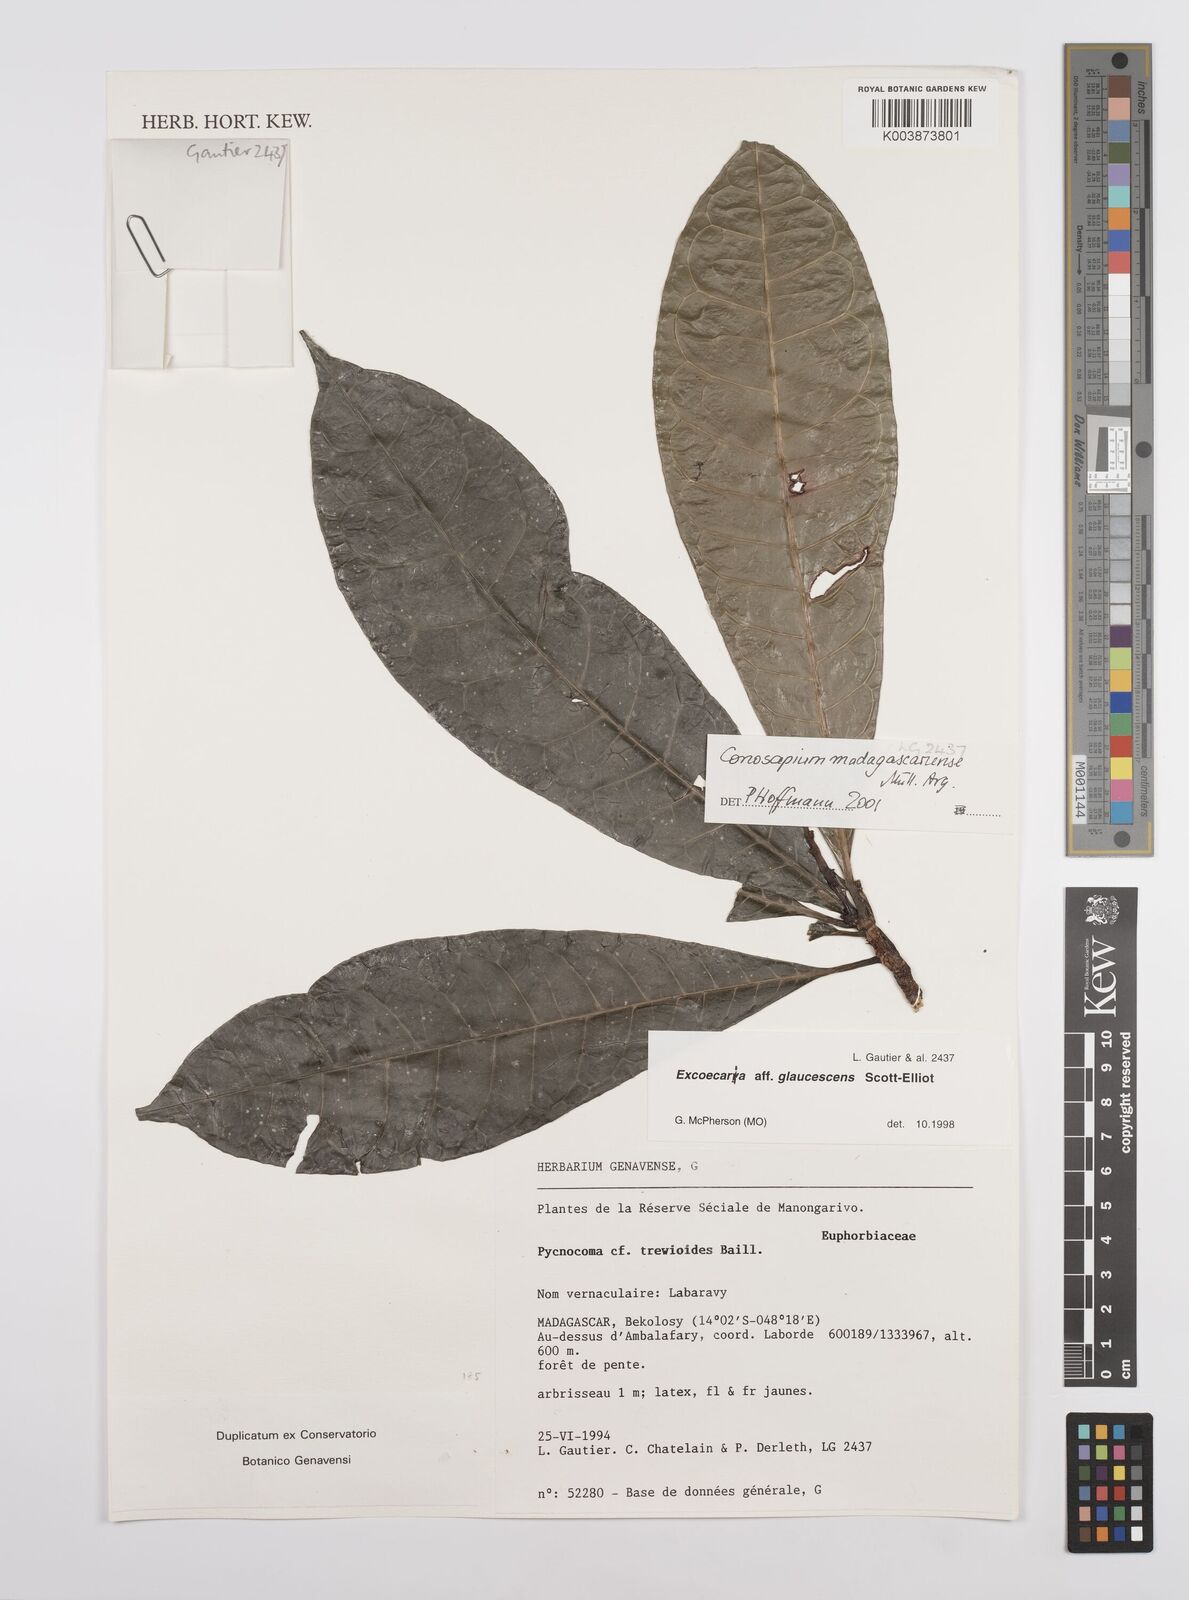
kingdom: Plantae
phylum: Tracheophyta
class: Magnoliopsida
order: Malpighiales
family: Euphorbiaceae
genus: Conosapium
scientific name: Conosapium madagascariense
